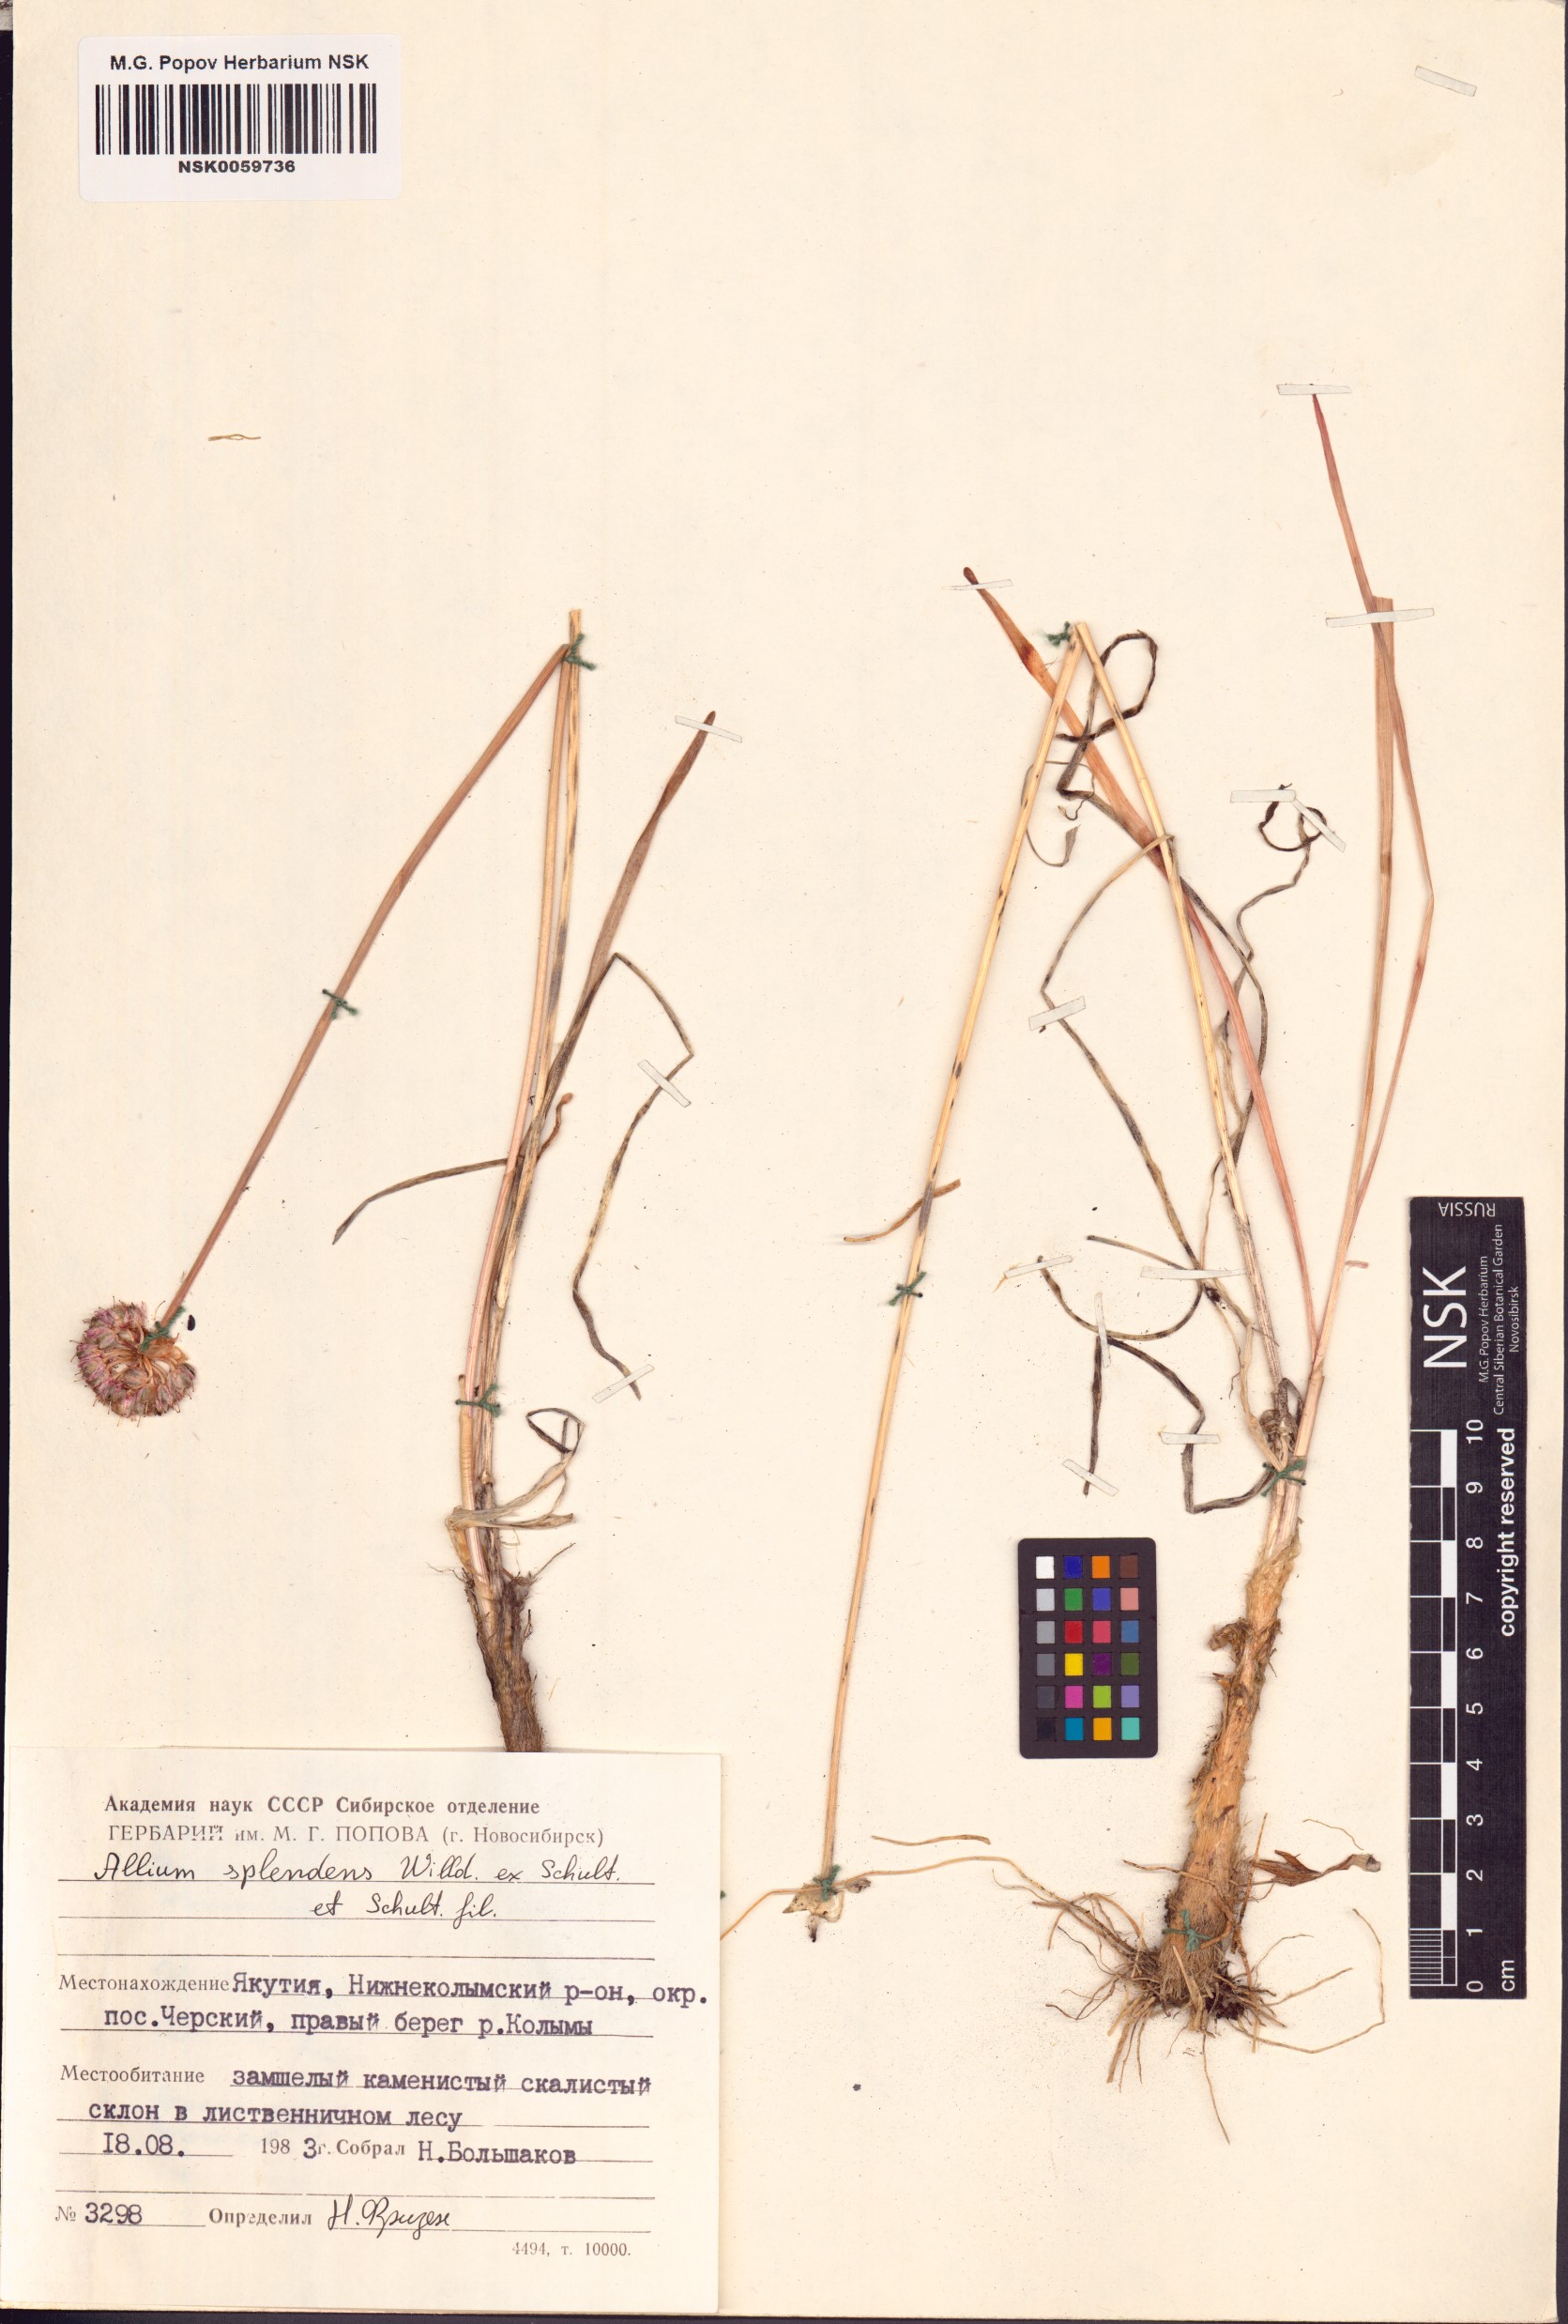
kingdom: Plantae
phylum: Tracheophyta
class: Liliopsida
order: Asparagales
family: Amaryllidaceae
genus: Allium
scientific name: Allium splendens
